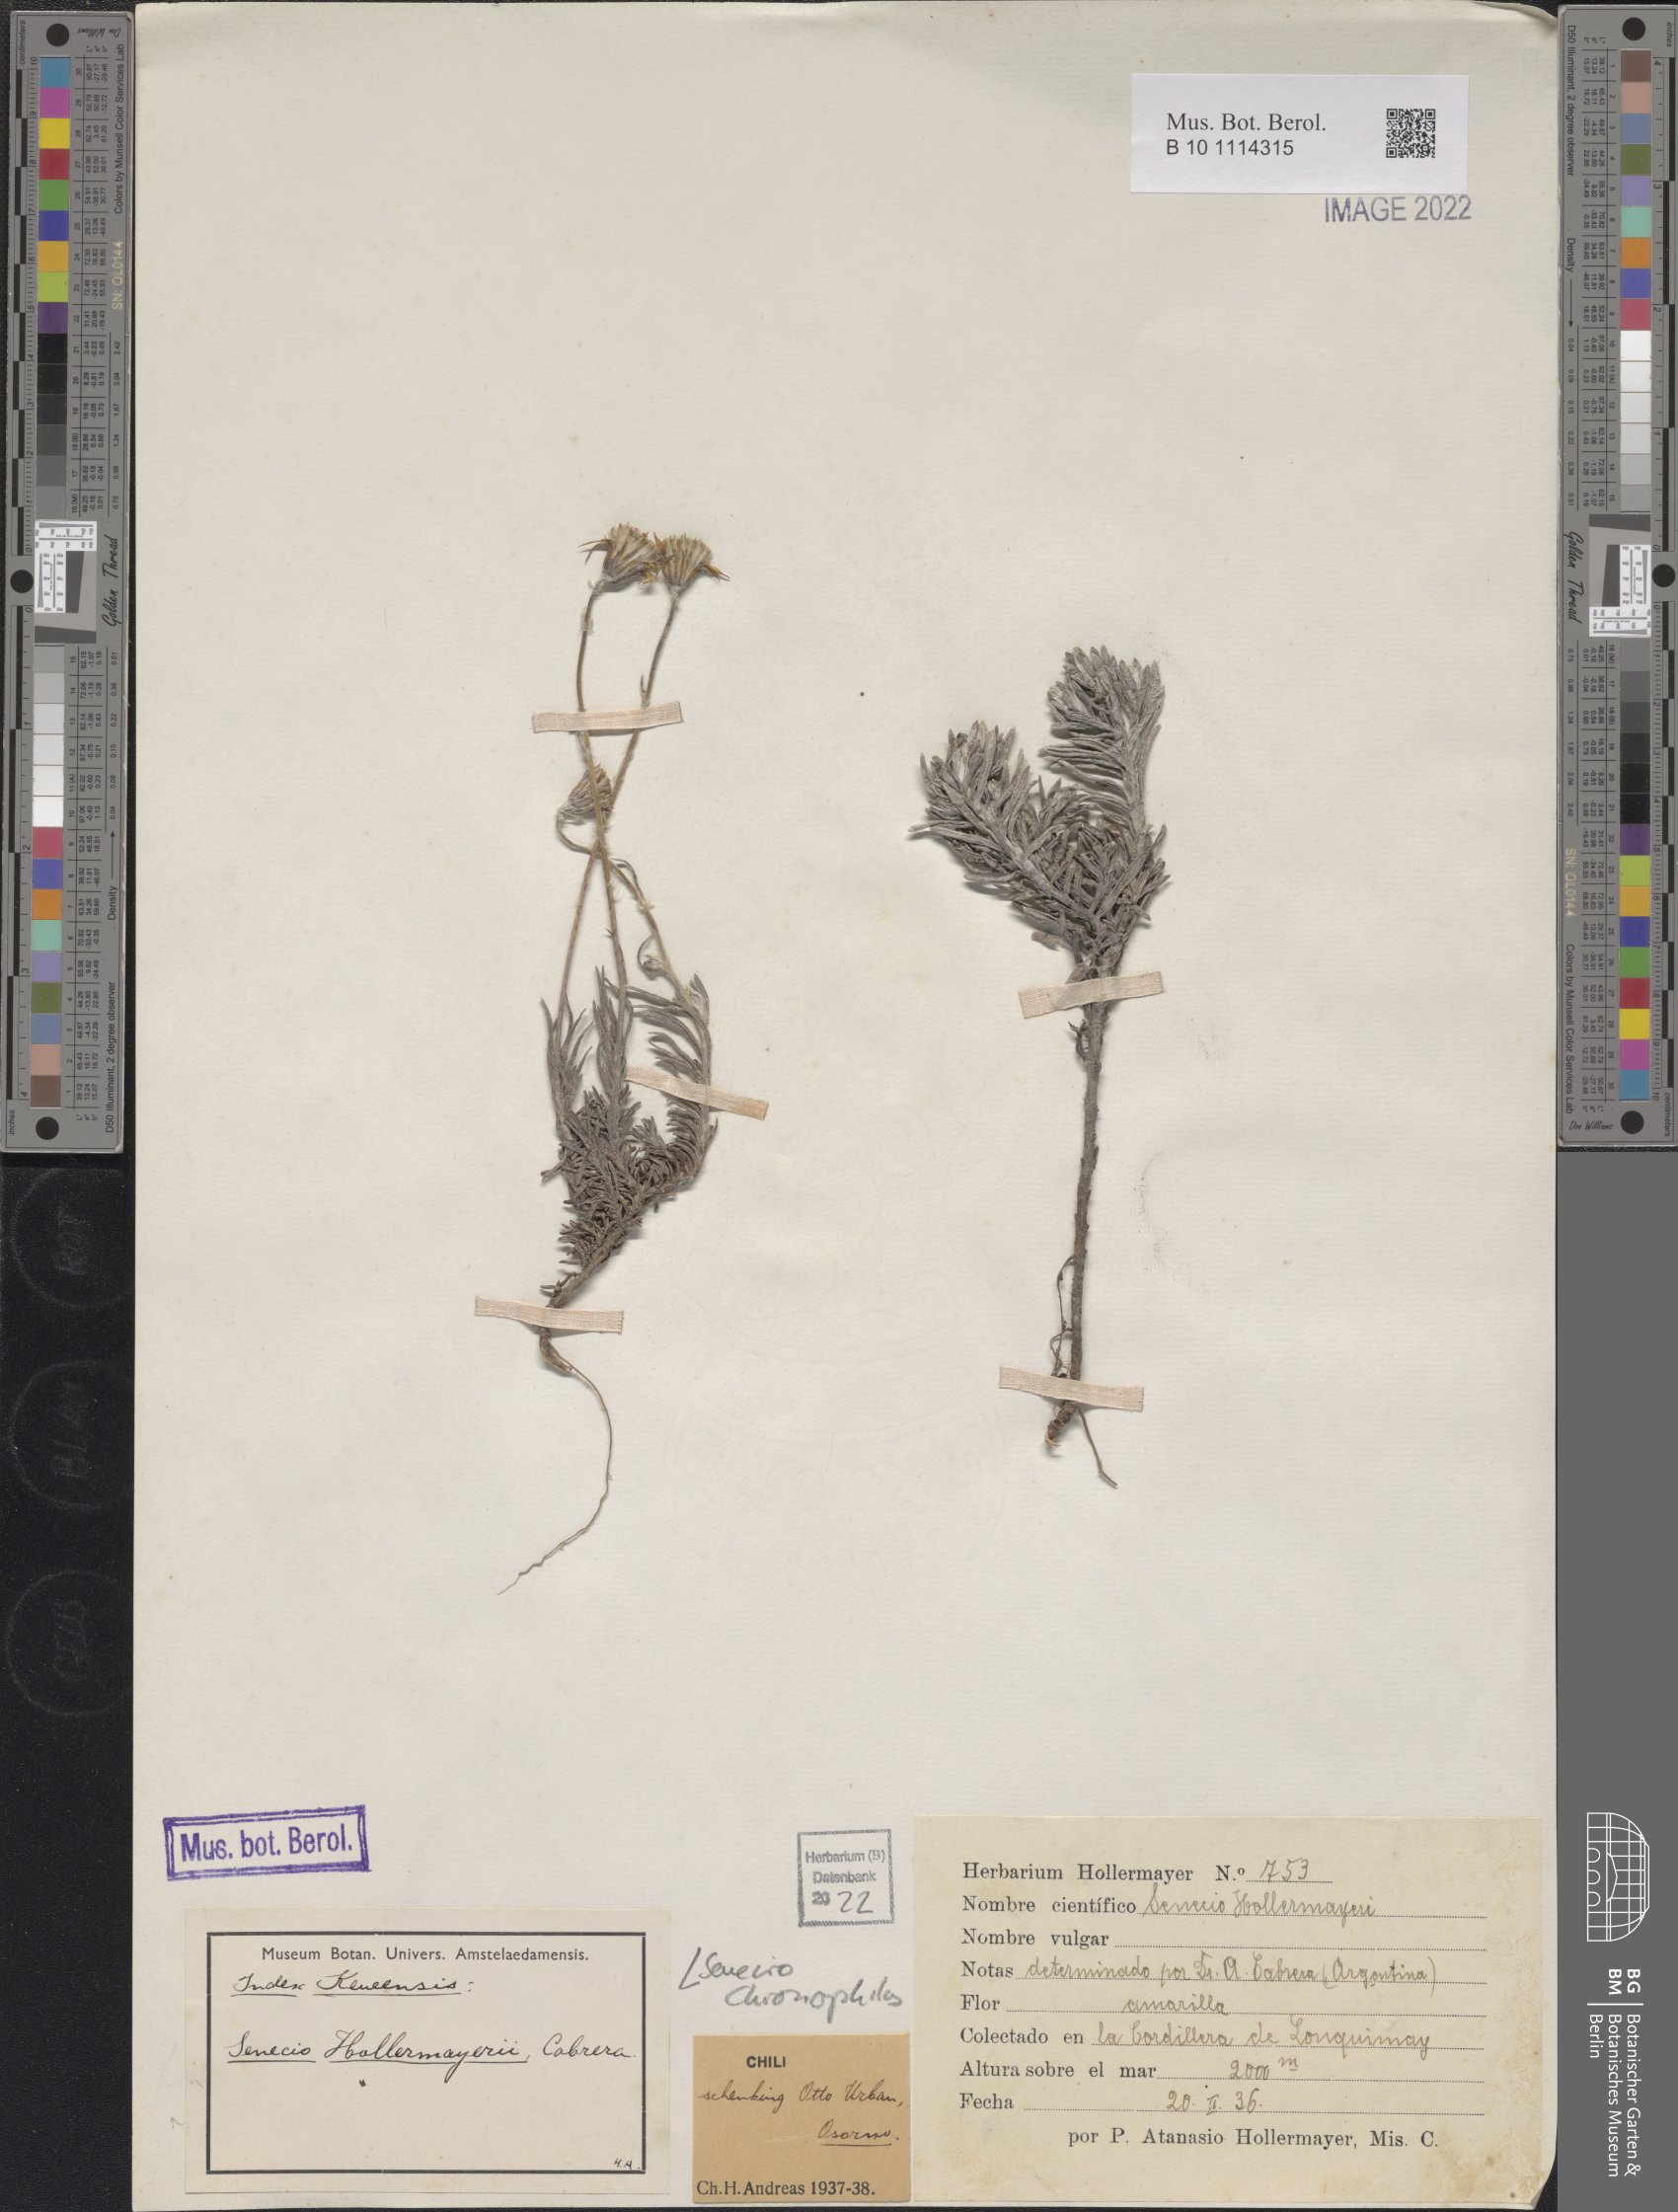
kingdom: Plantae
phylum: Tracheophyta
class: Magnoliopsida
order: Asterales
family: Asteraceae
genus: Senecio
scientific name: Senecio chionophilus
